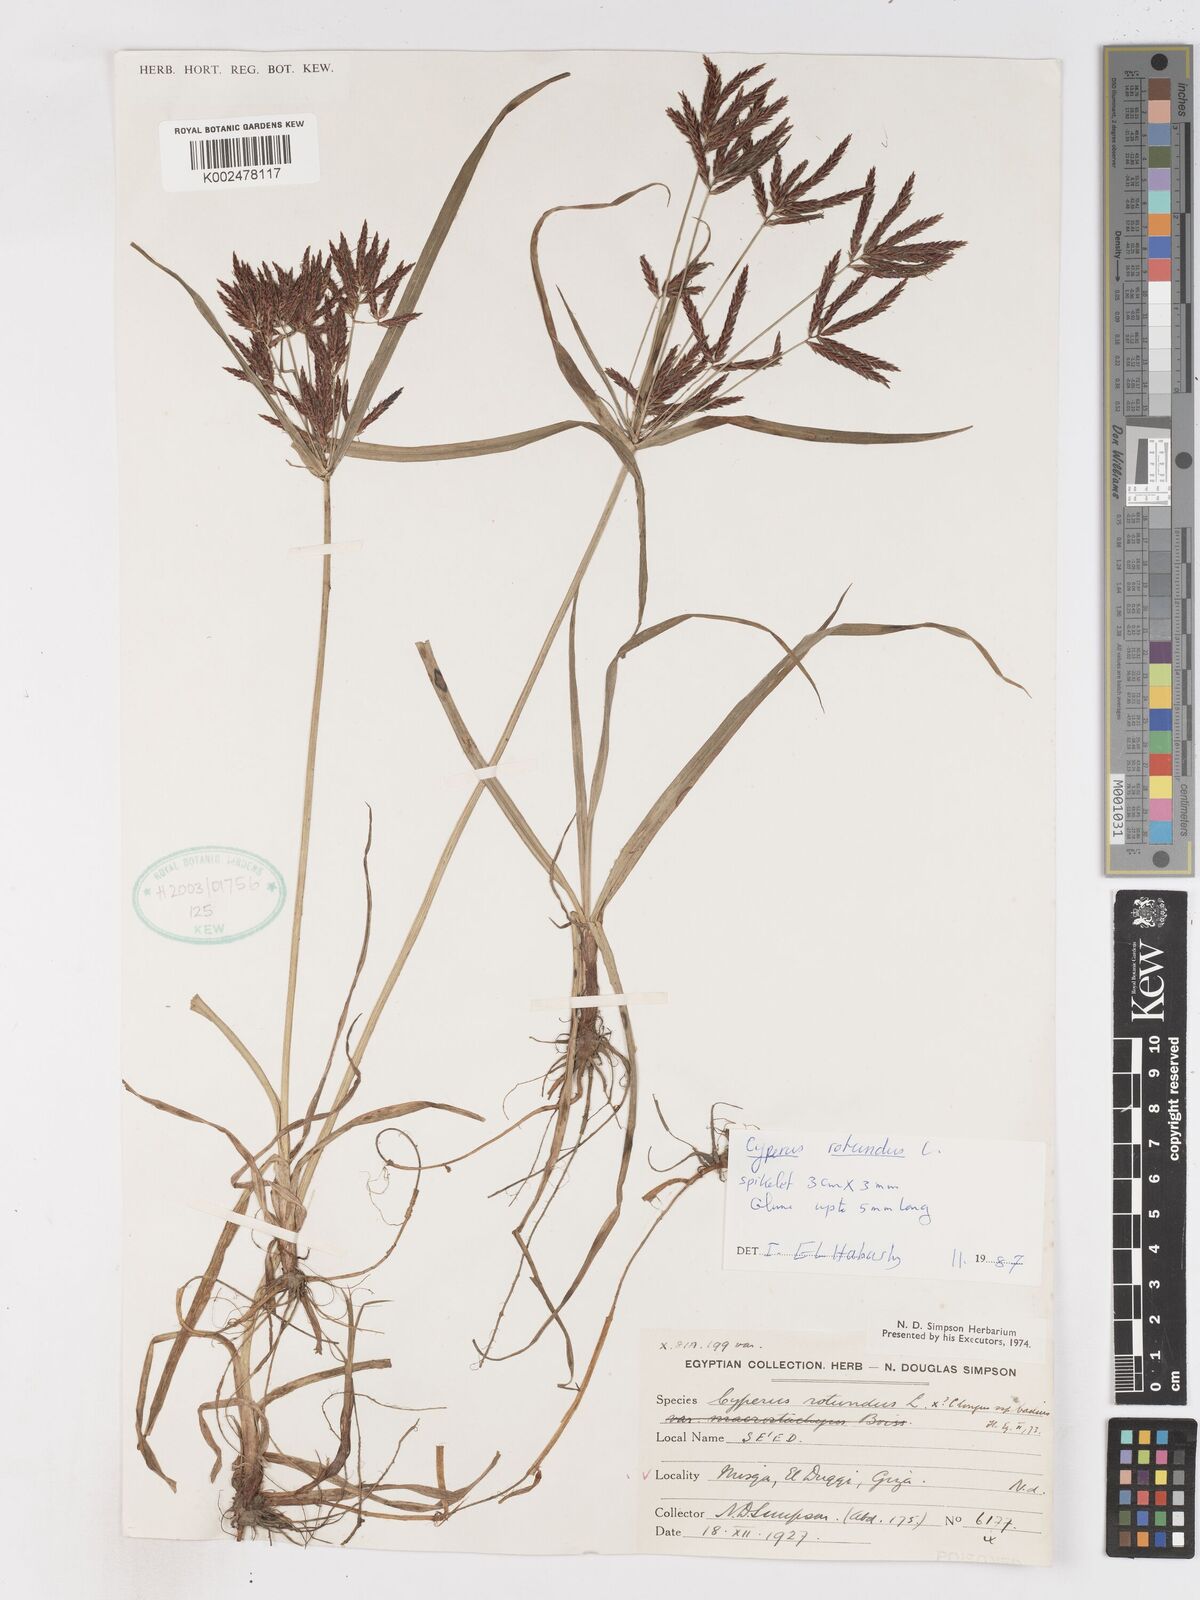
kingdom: Plantae
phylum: Tracheophyta
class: Liliopsida
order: Poales
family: Cyperaceae
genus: Cyperus
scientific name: Cyperus rotundus
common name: Nutgrass
